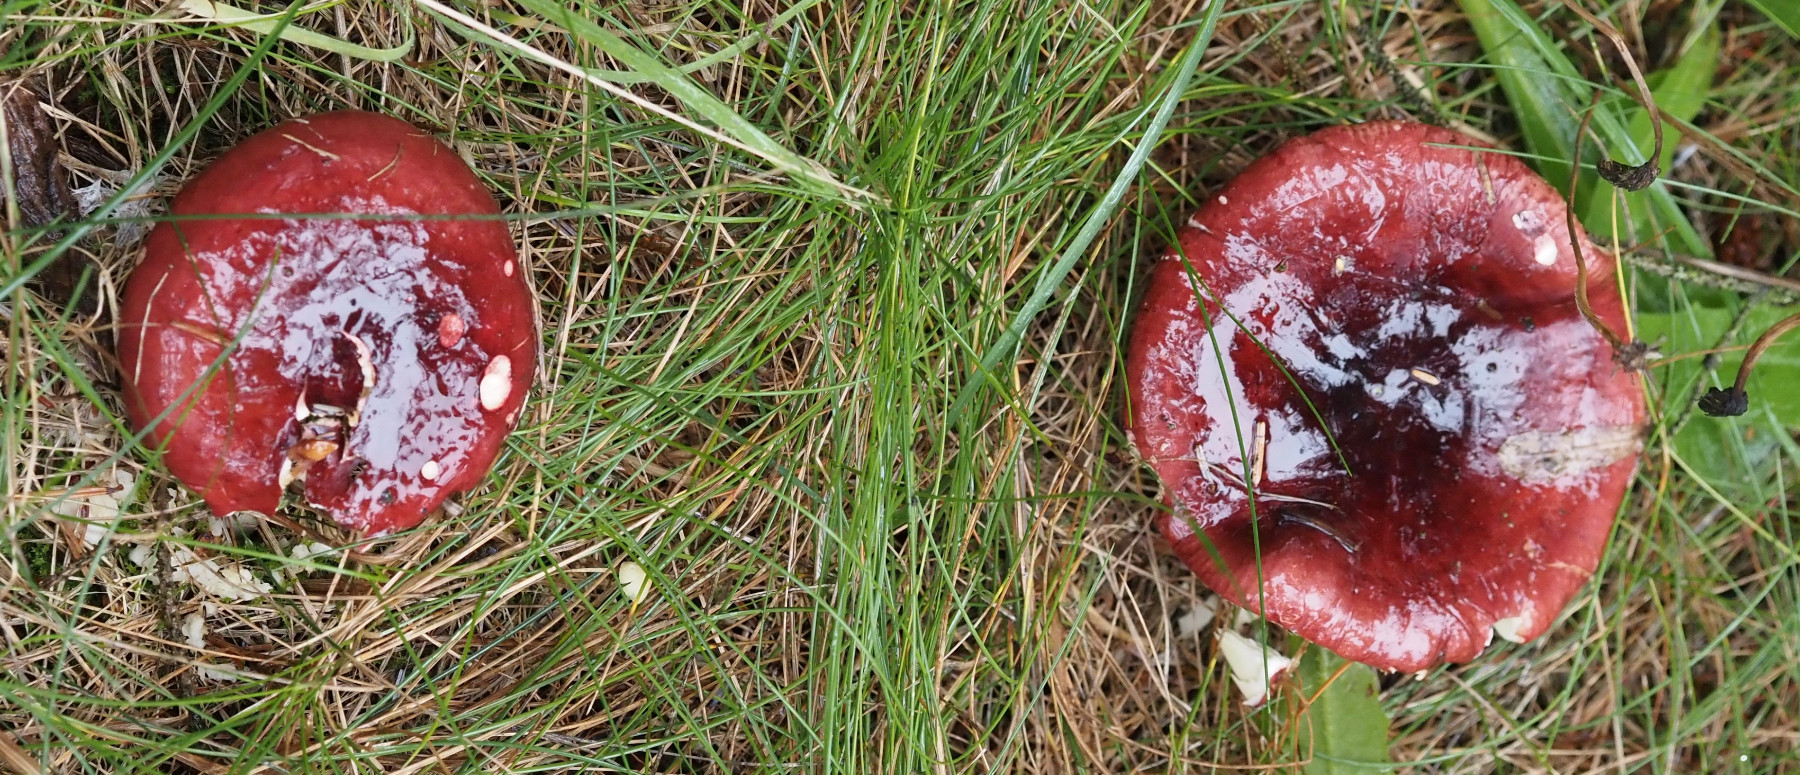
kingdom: Fungi
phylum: Basidiomycota
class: Agaricomycetes
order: Russulales
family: Russulaceae
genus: Russula
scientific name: Russula xerampelina
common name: hummer-skørhat
